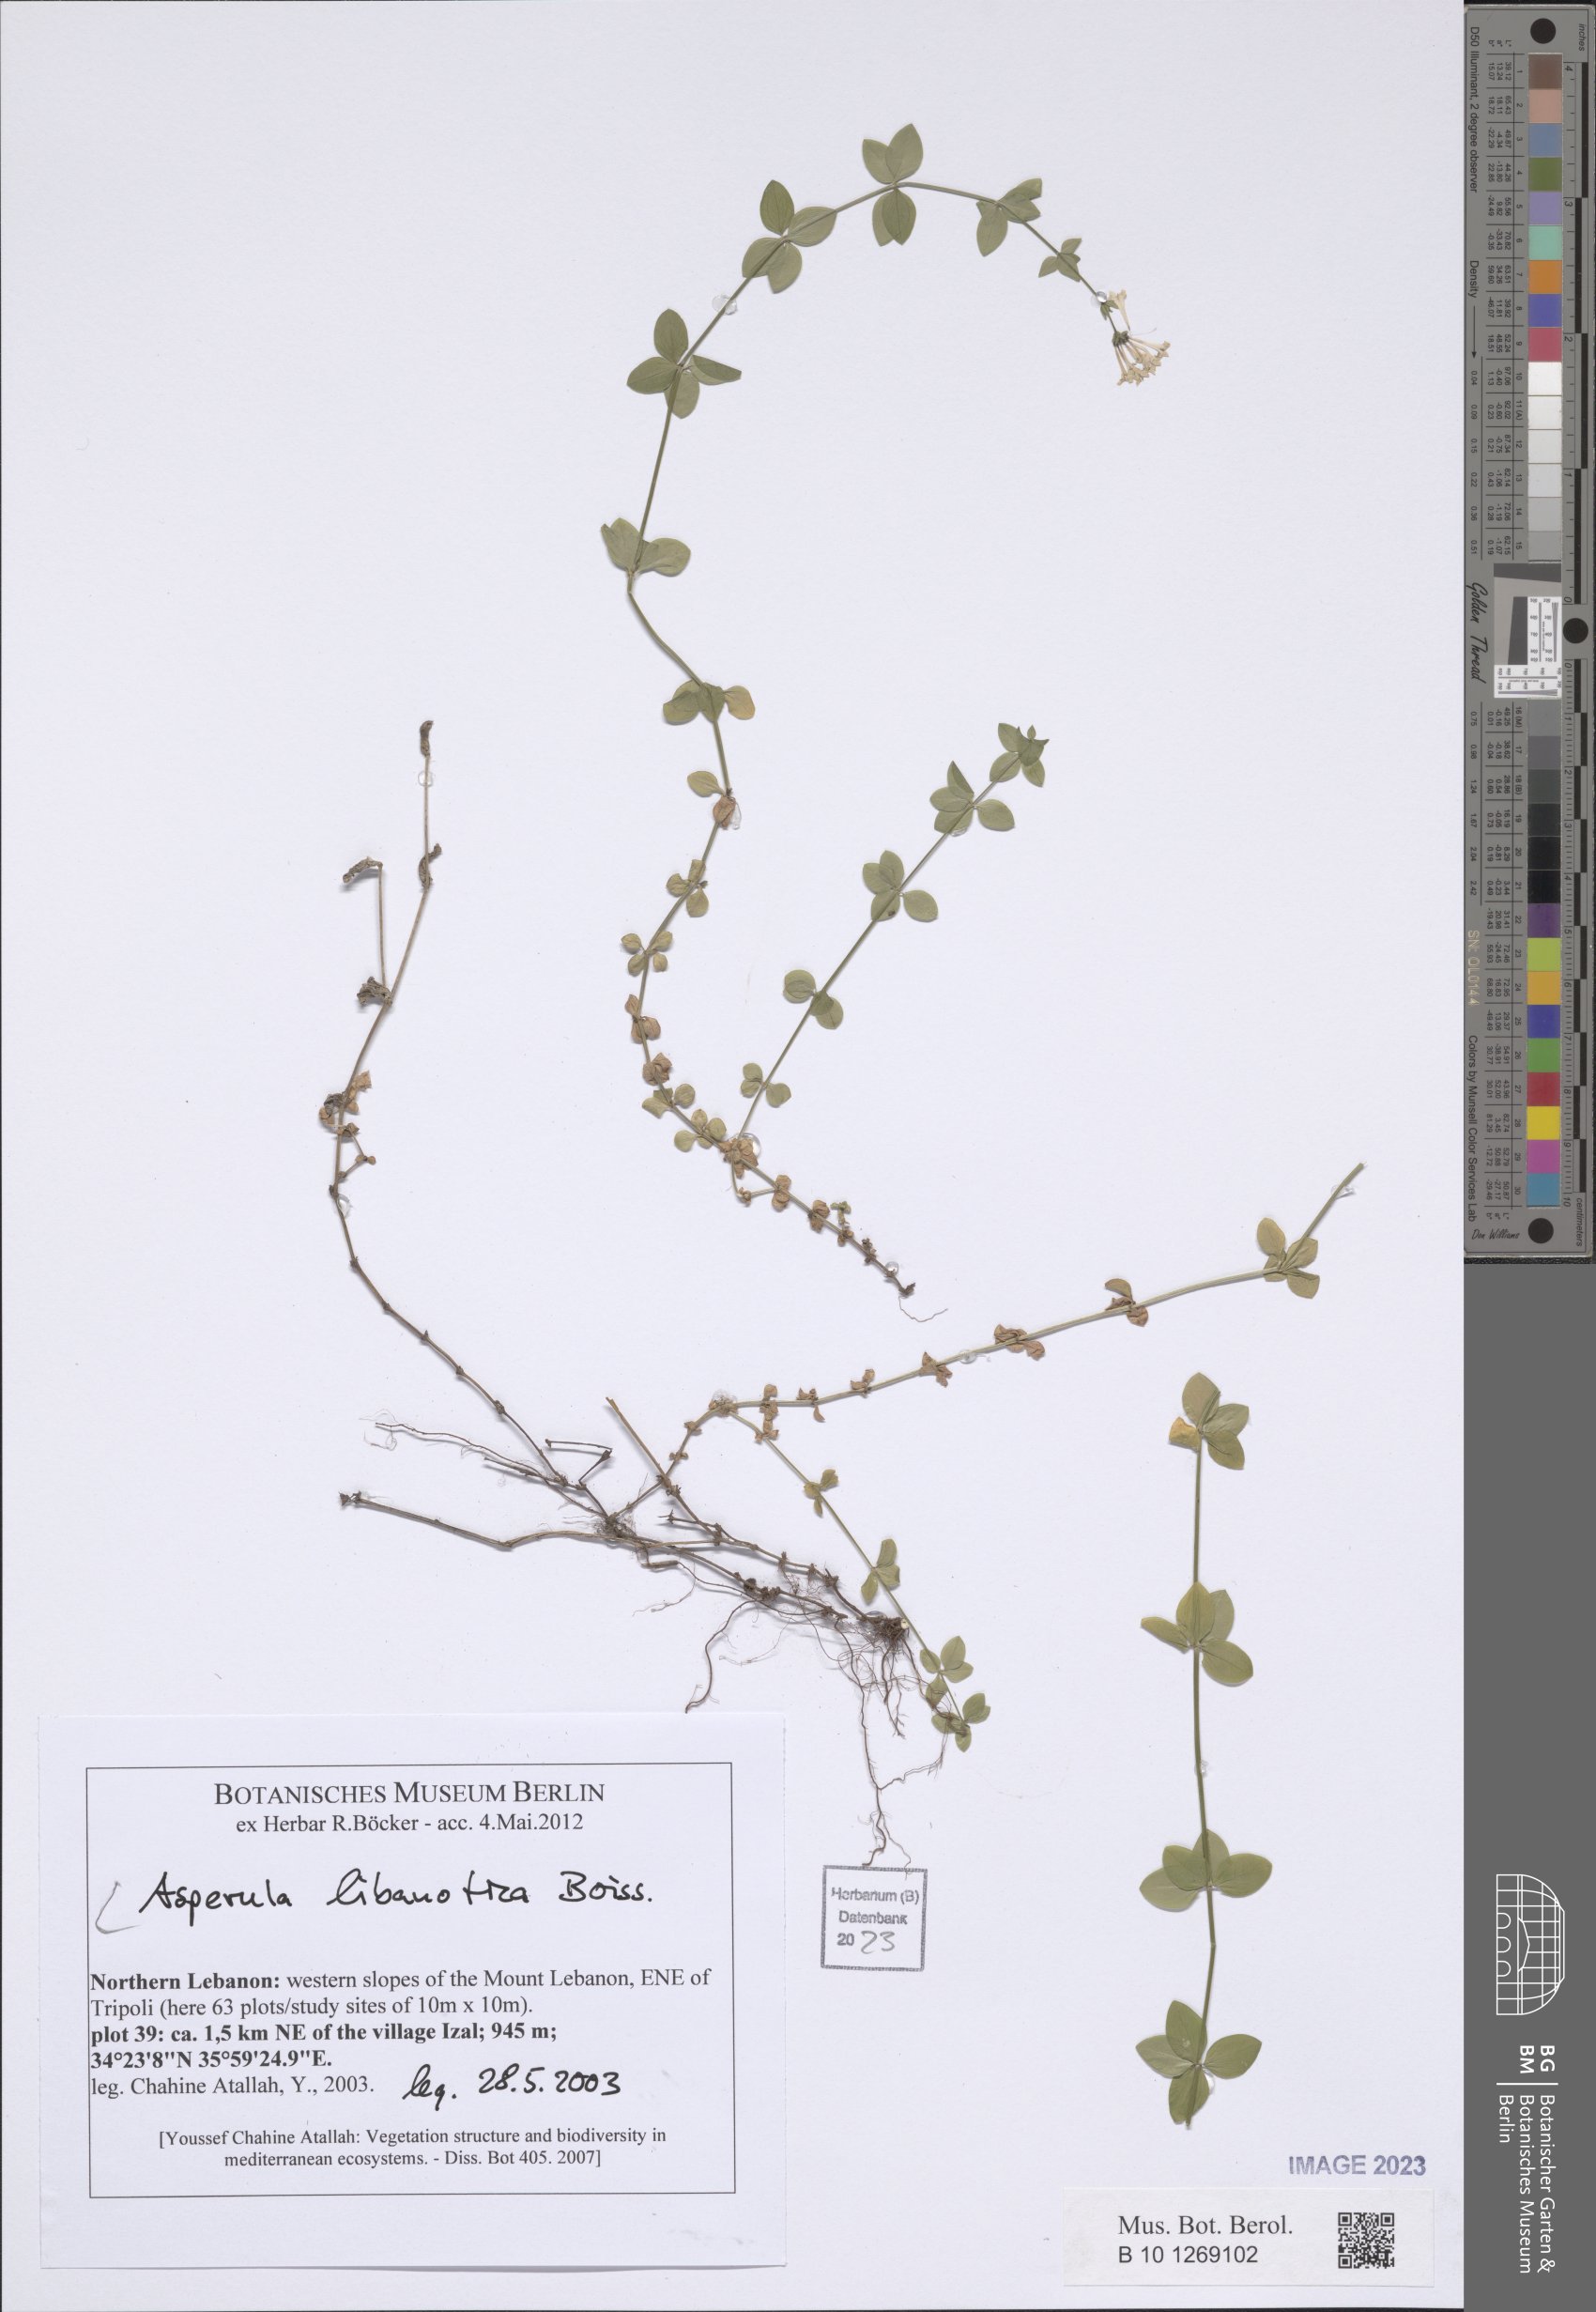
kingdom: Plantae
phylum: Tracheophyta
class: Magnoliopsida
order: Gentianales
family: Rubiaceae
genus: Asperula
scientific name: Asperula libanotica
